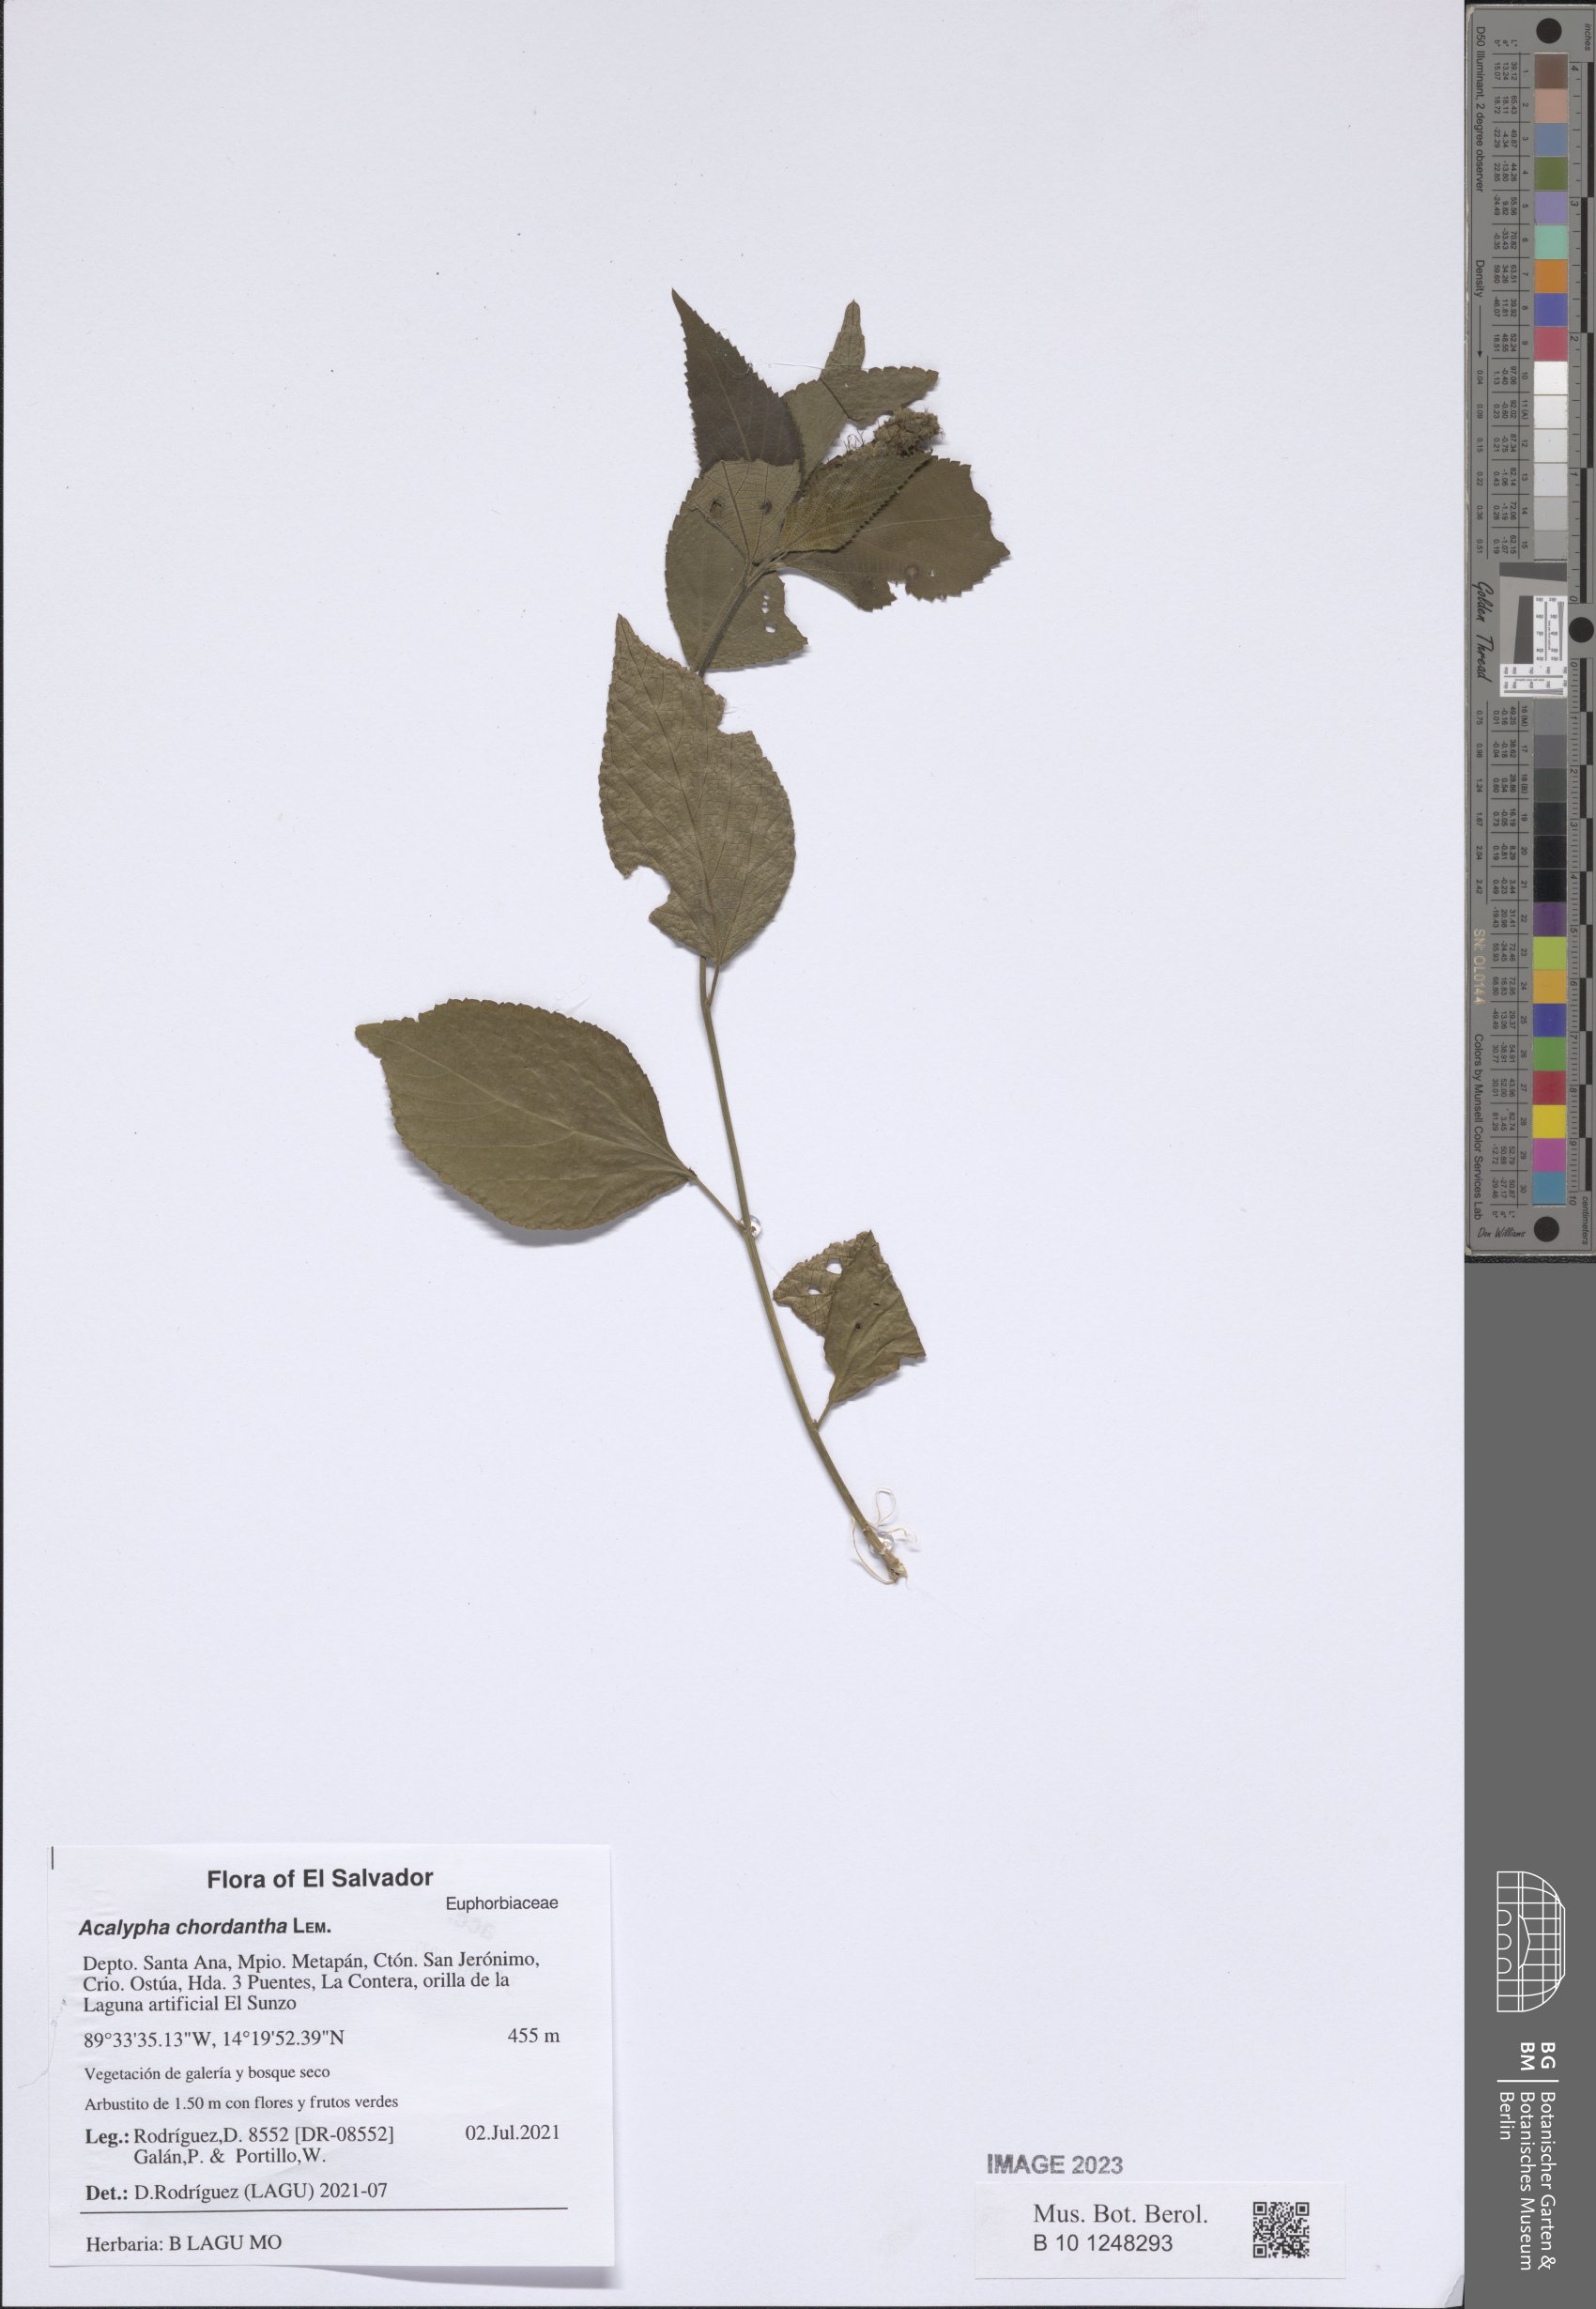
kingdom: Plantae
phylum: Tracheophyta
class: Magnoliopsida
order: Malpighiales
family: Euphorbiaceae
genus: Acalypha
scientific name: Acalypha chordantha
